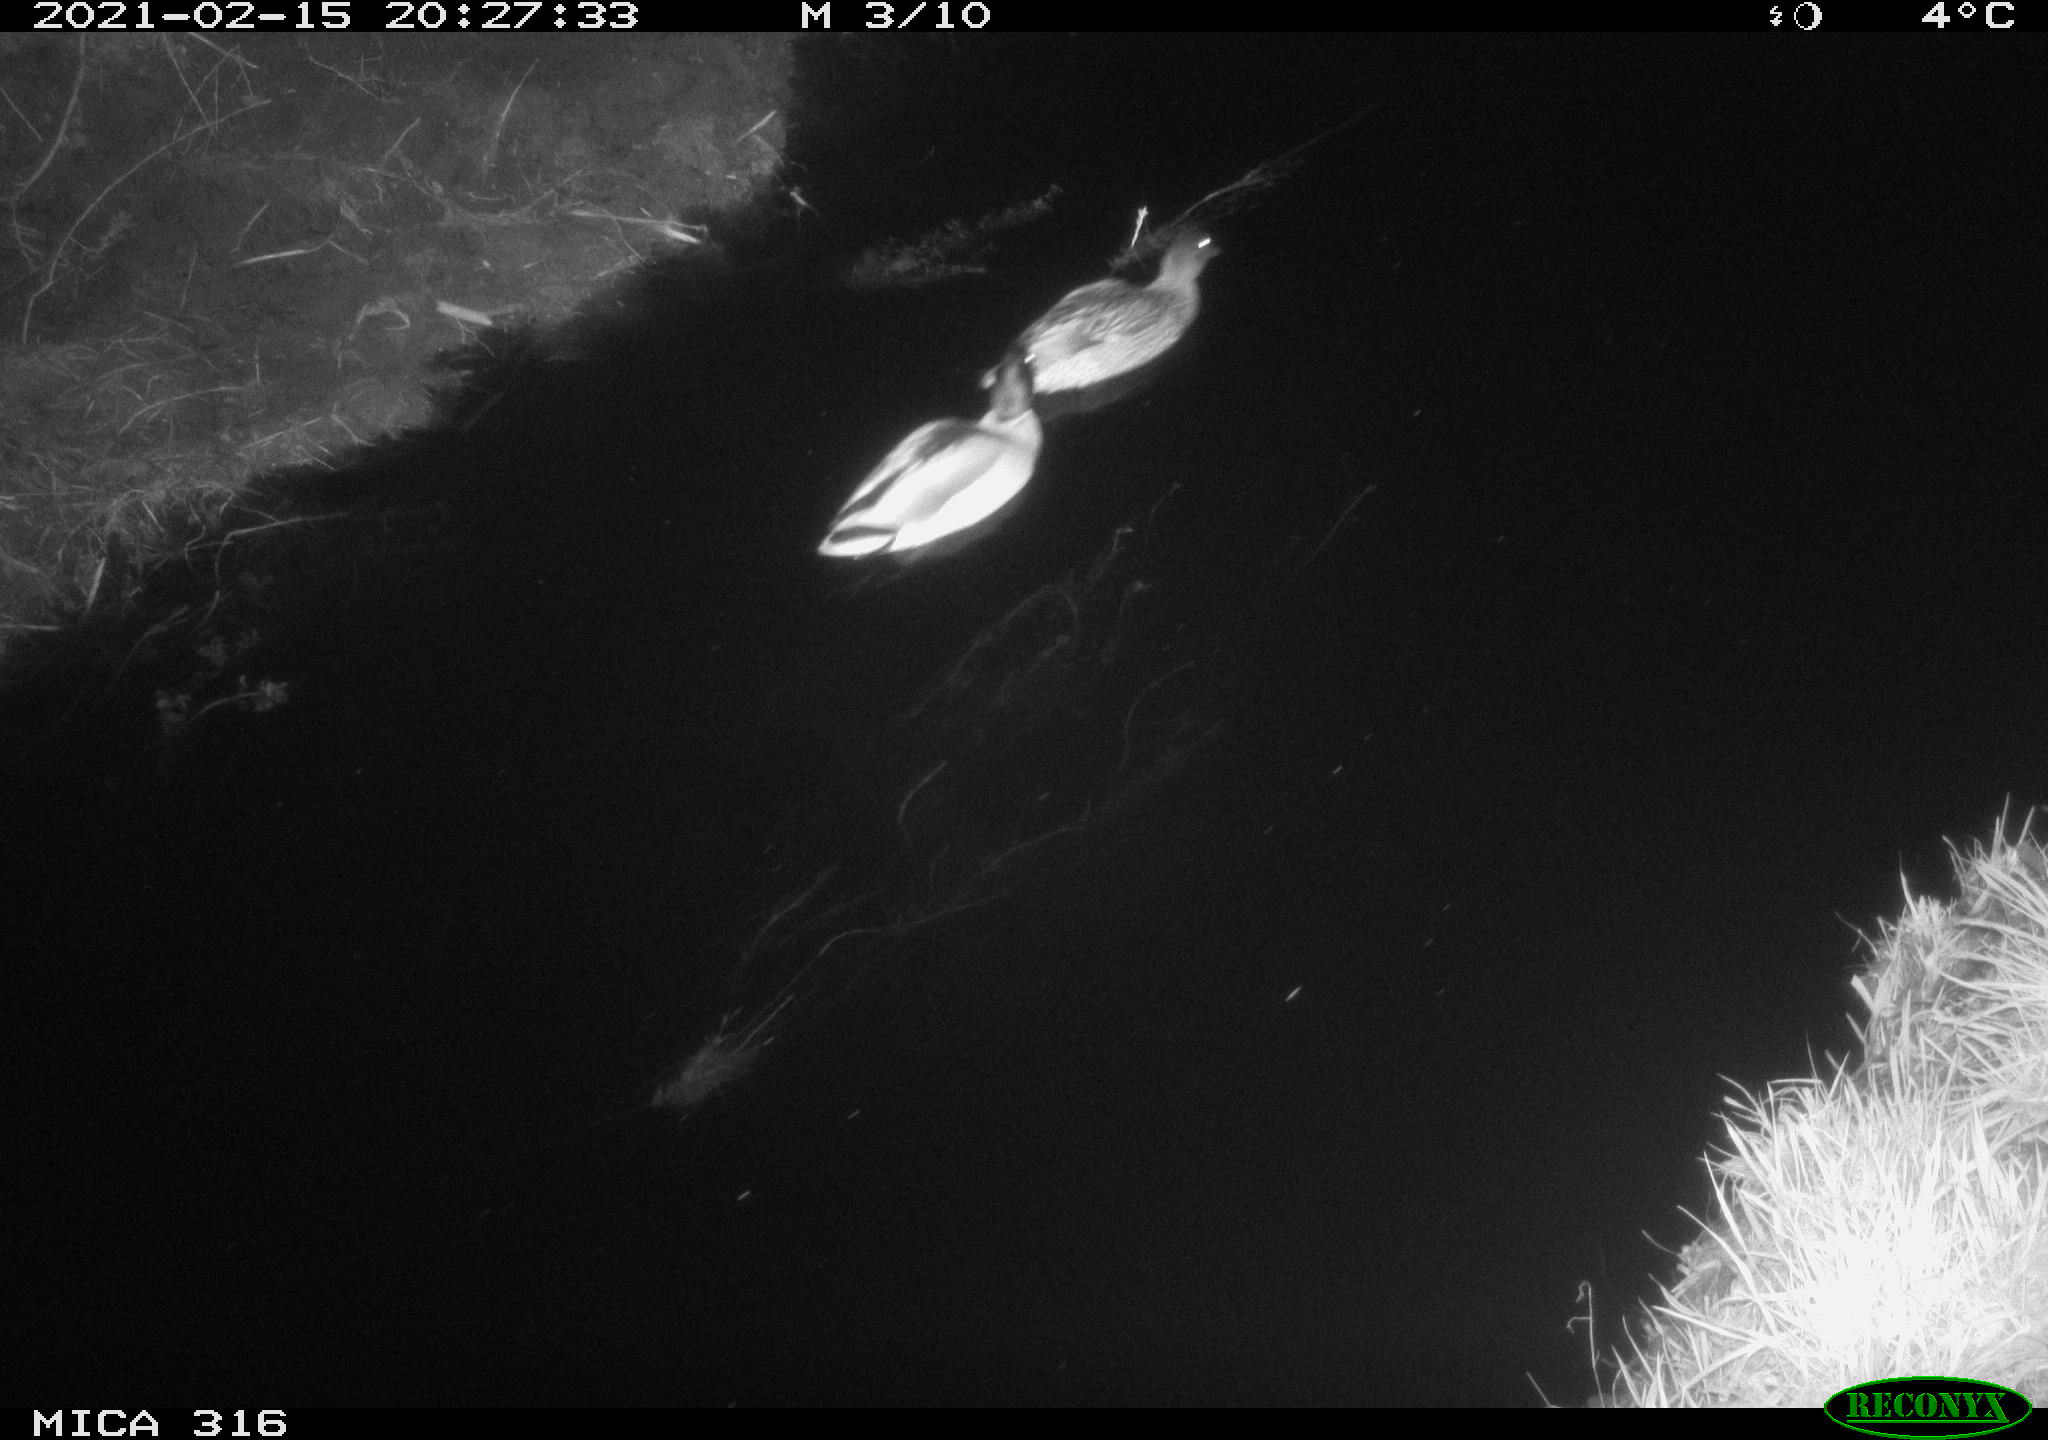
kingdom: Animalia
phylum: Chordata
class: Aves
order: Anseriformes
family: Anatidae
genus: Anas
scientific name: Anas platyrhynchos
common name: Mallard
